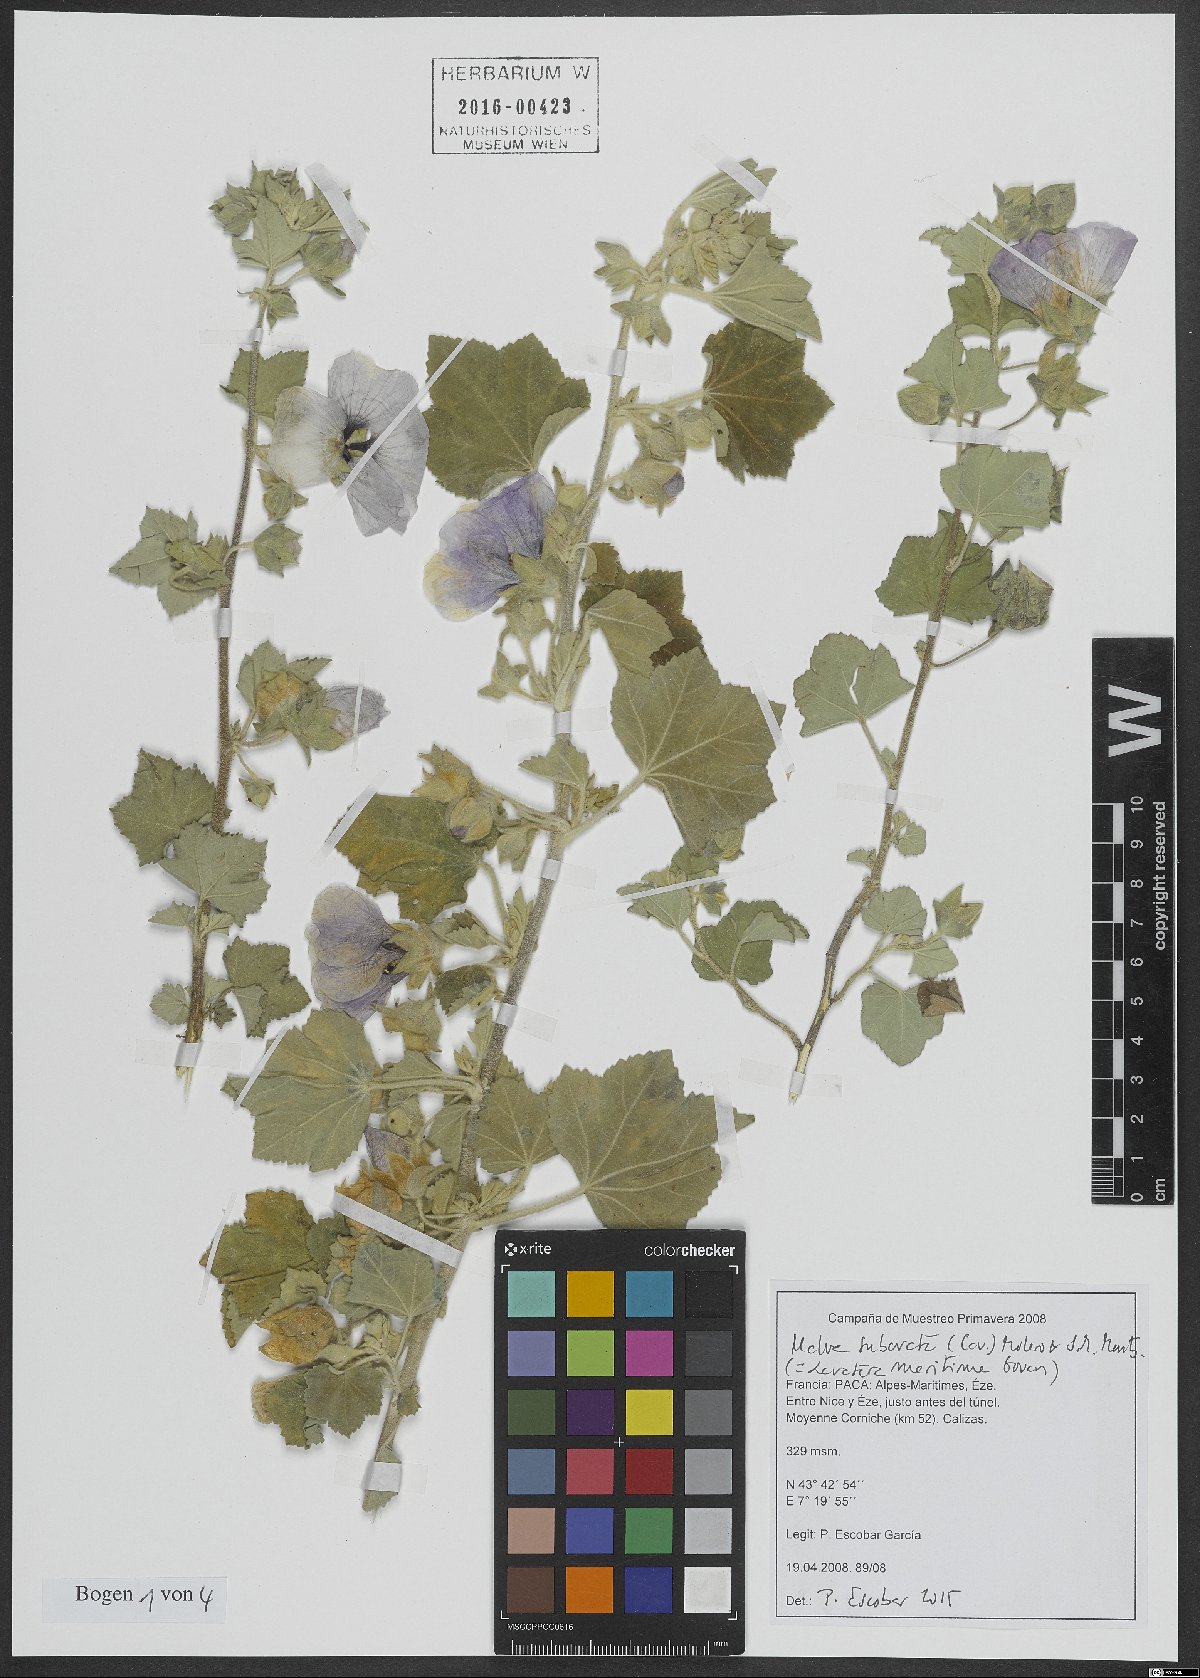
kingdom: Plantae
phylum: Tracheophyta
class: Magnoliopsida
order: Malvales
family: Malvaceae
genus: Malva
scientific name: Malva subovata
